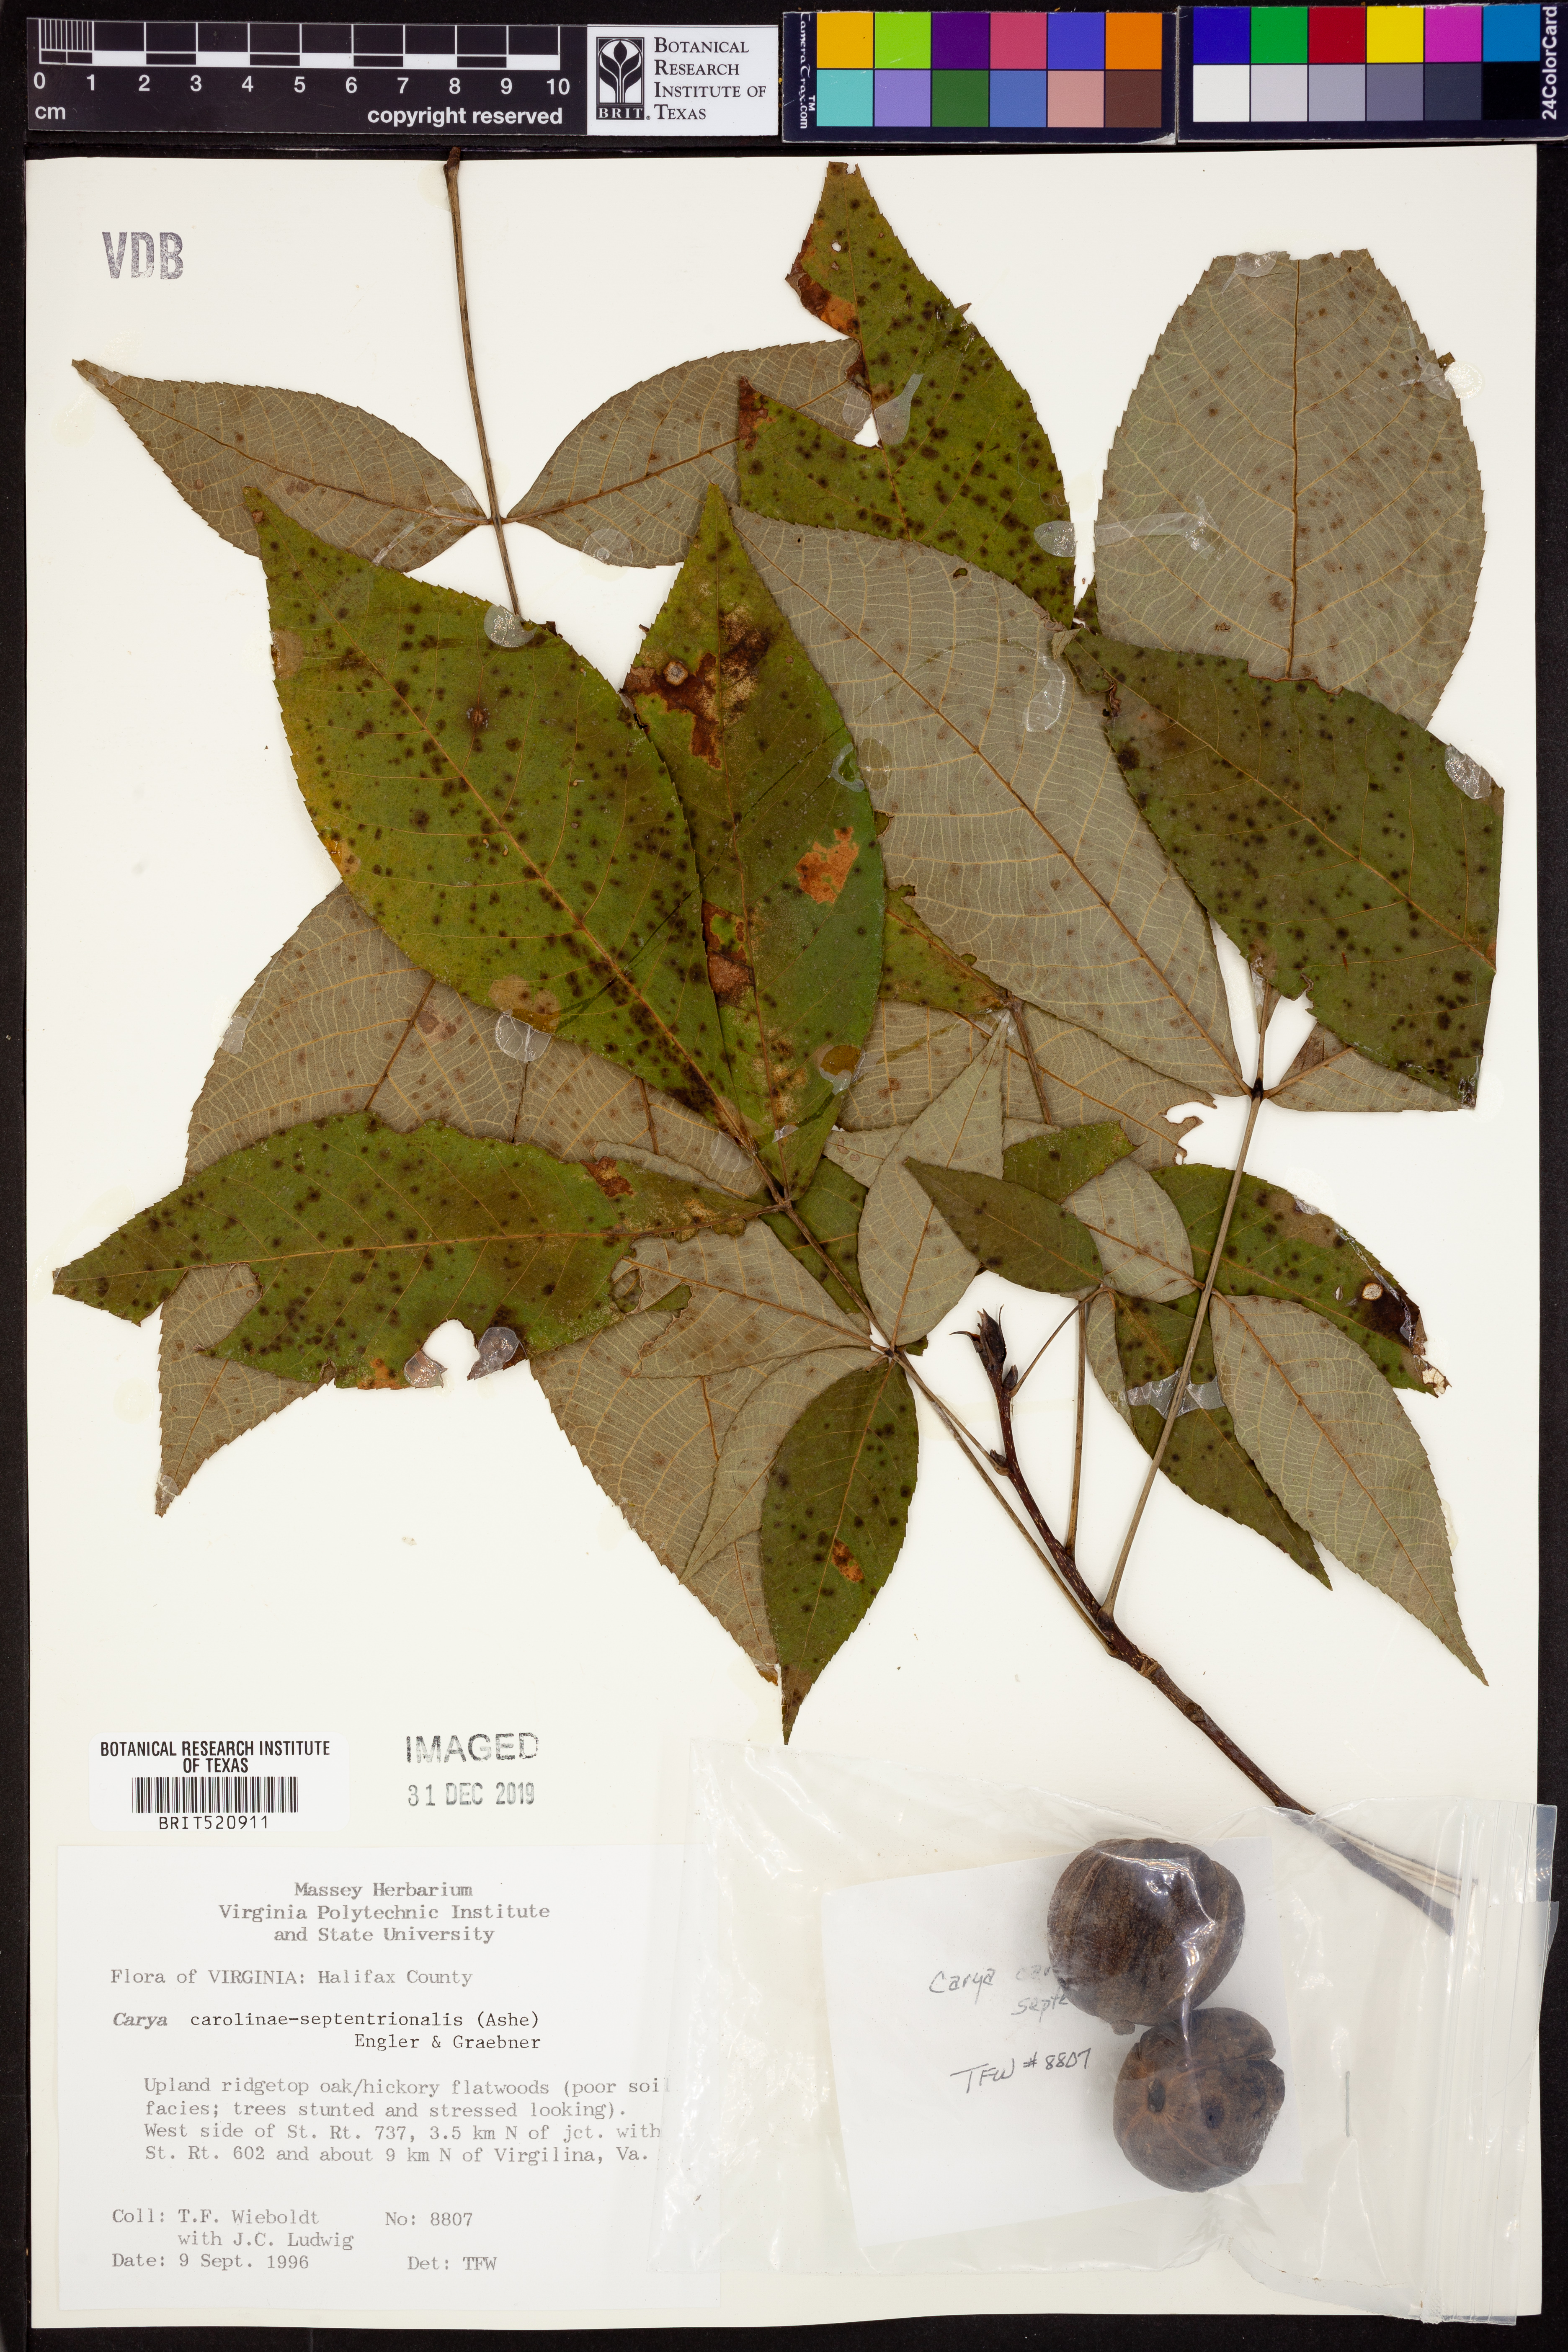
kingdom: Plantae
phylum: Tracheophyta
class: Magnoliopsida
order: Fagales
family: Juglandaceae
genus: Carya
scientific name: Carya carolinae-septentrionalis
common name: Carolina hickory
